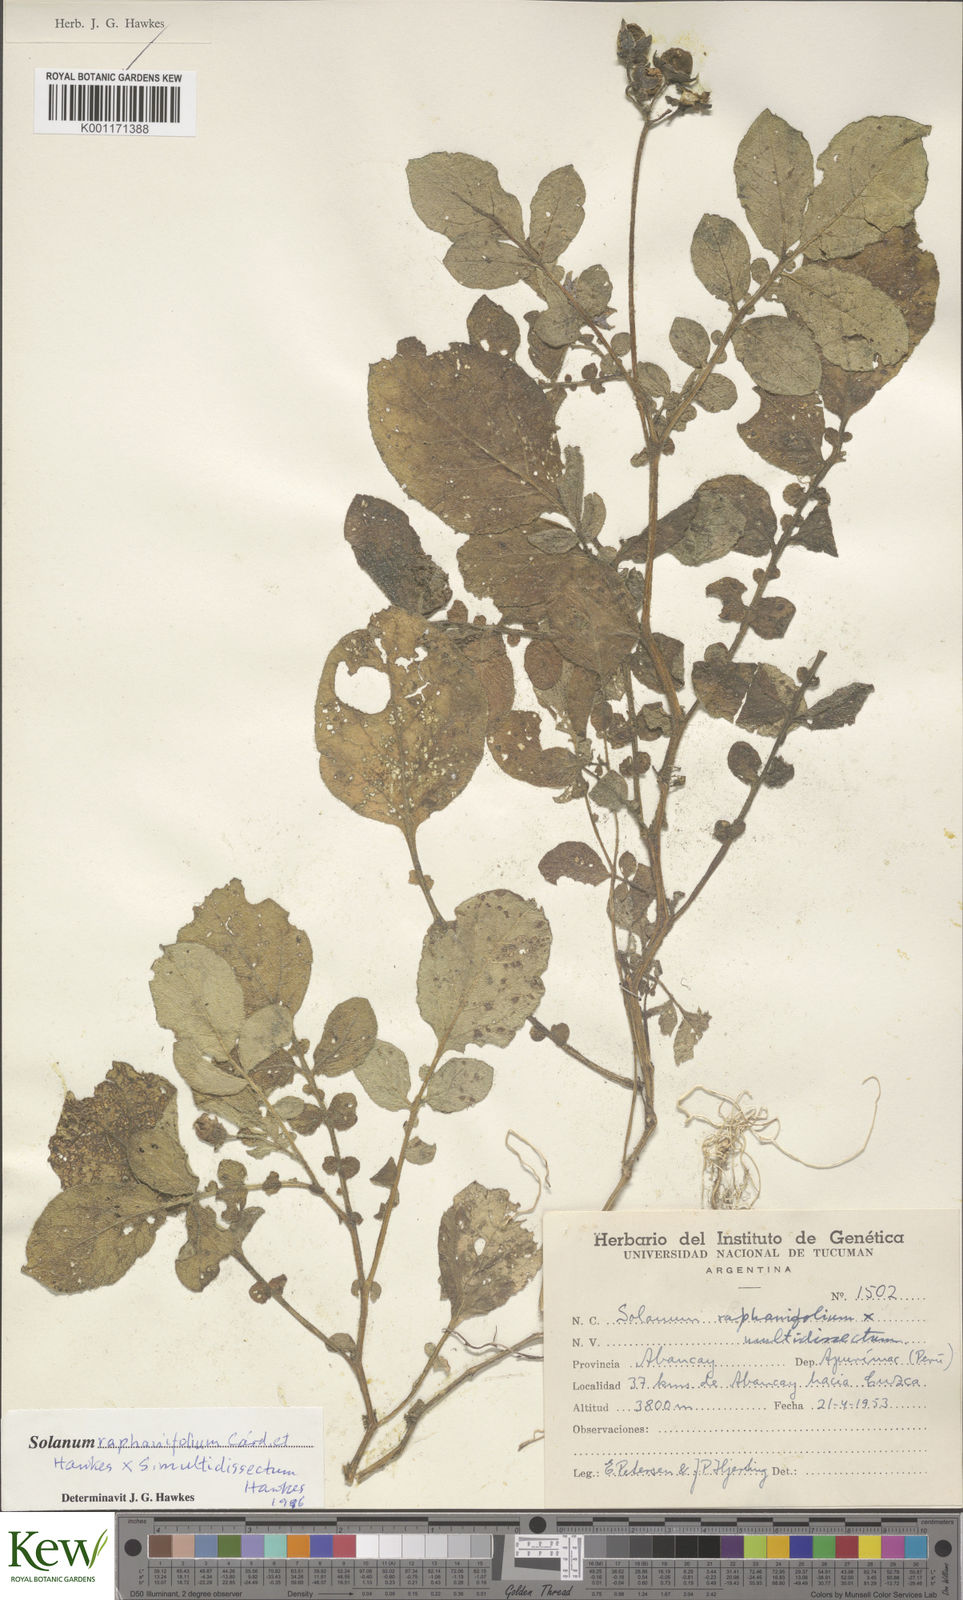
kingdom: Plantae
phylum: Tracheophyta
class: Magnoliopsida
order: Solanales
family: Solanaceae
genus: Solanum
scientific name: Solanum
